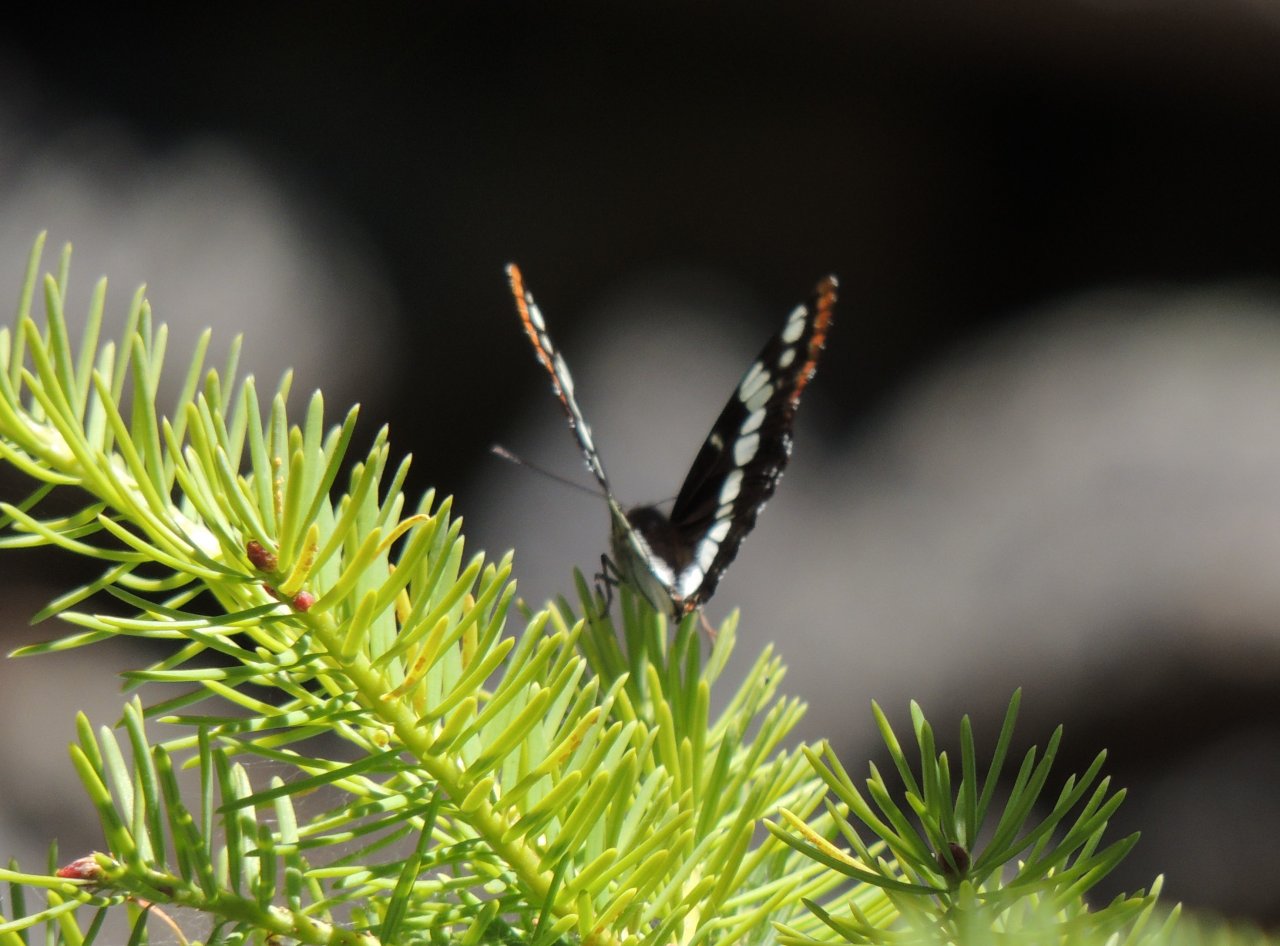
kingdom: Animalia
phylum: Arthropoda
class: Insecta
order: Lepidoptera
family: Nymphalidae
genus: Limenitis
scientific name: Limenitis lorquini
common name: Lorquin's Admiral
